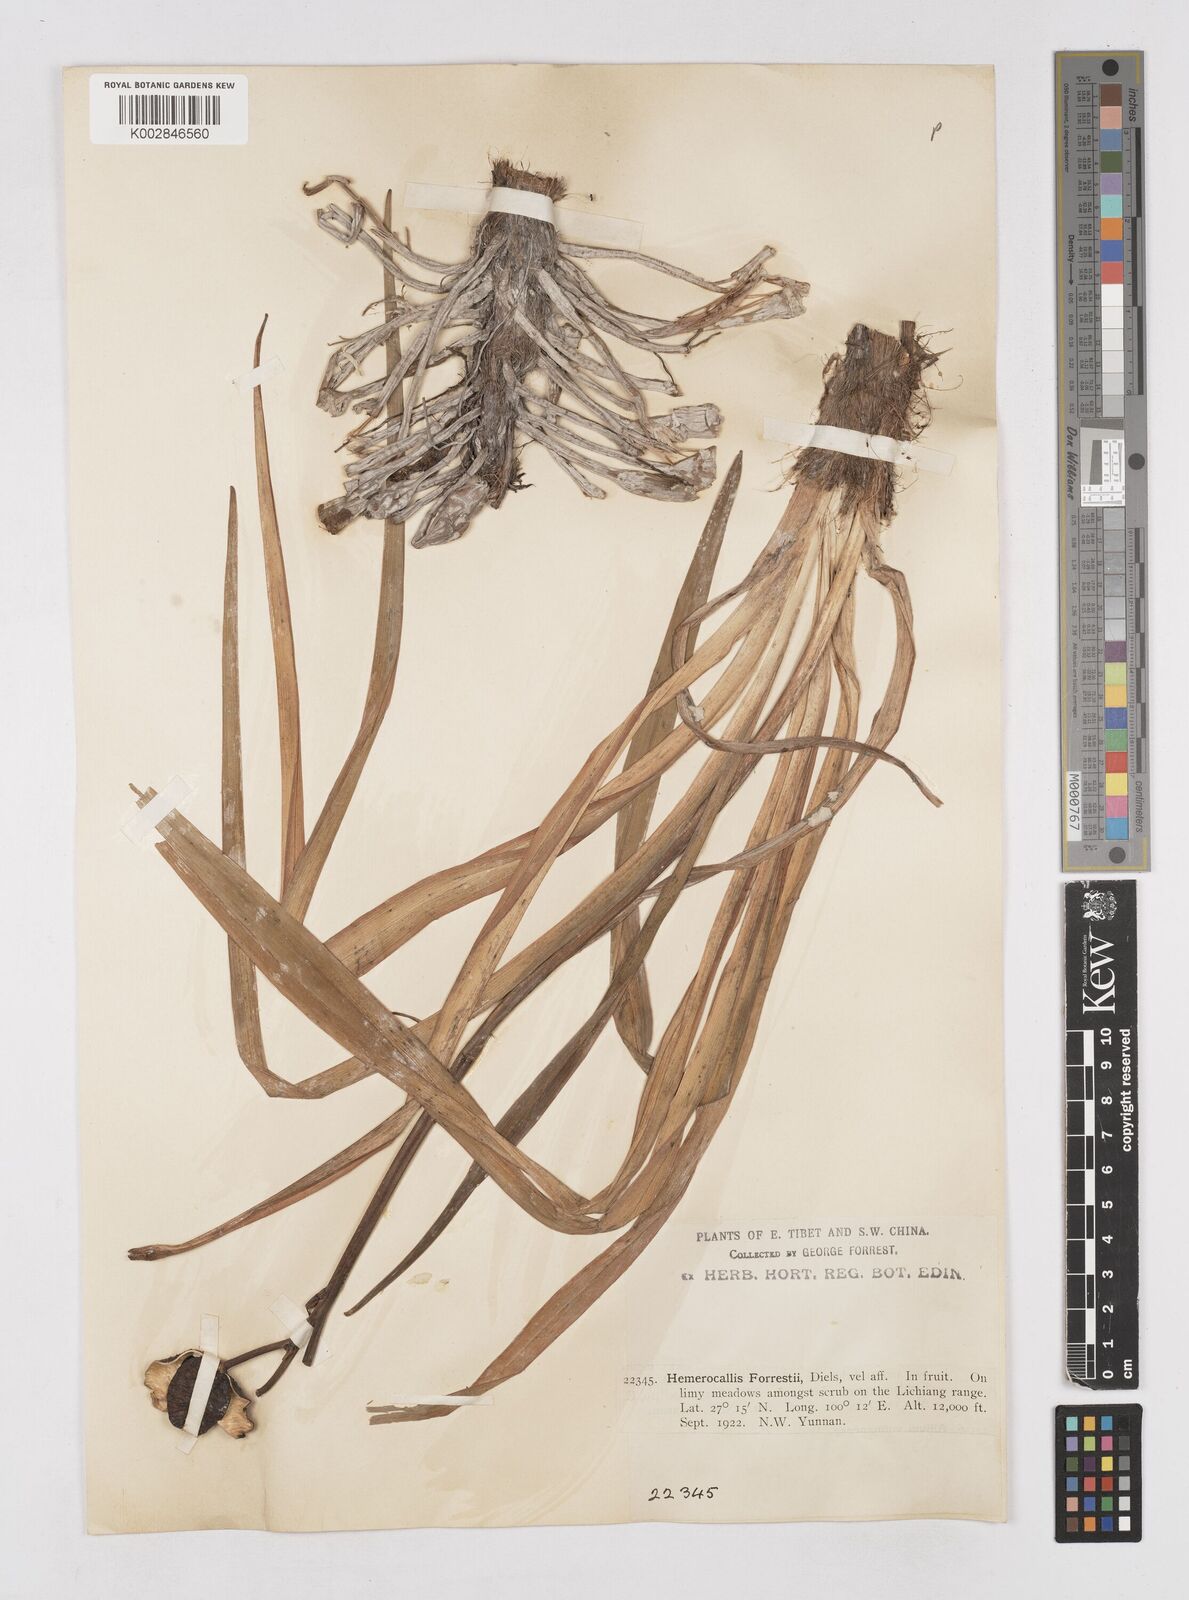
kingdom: Plantae
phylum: Tracheophyta
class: Liliopsida
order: Asparagales
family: Asphodelaceae
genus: Hemerocallis
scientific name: Hemerocallis forrestii
